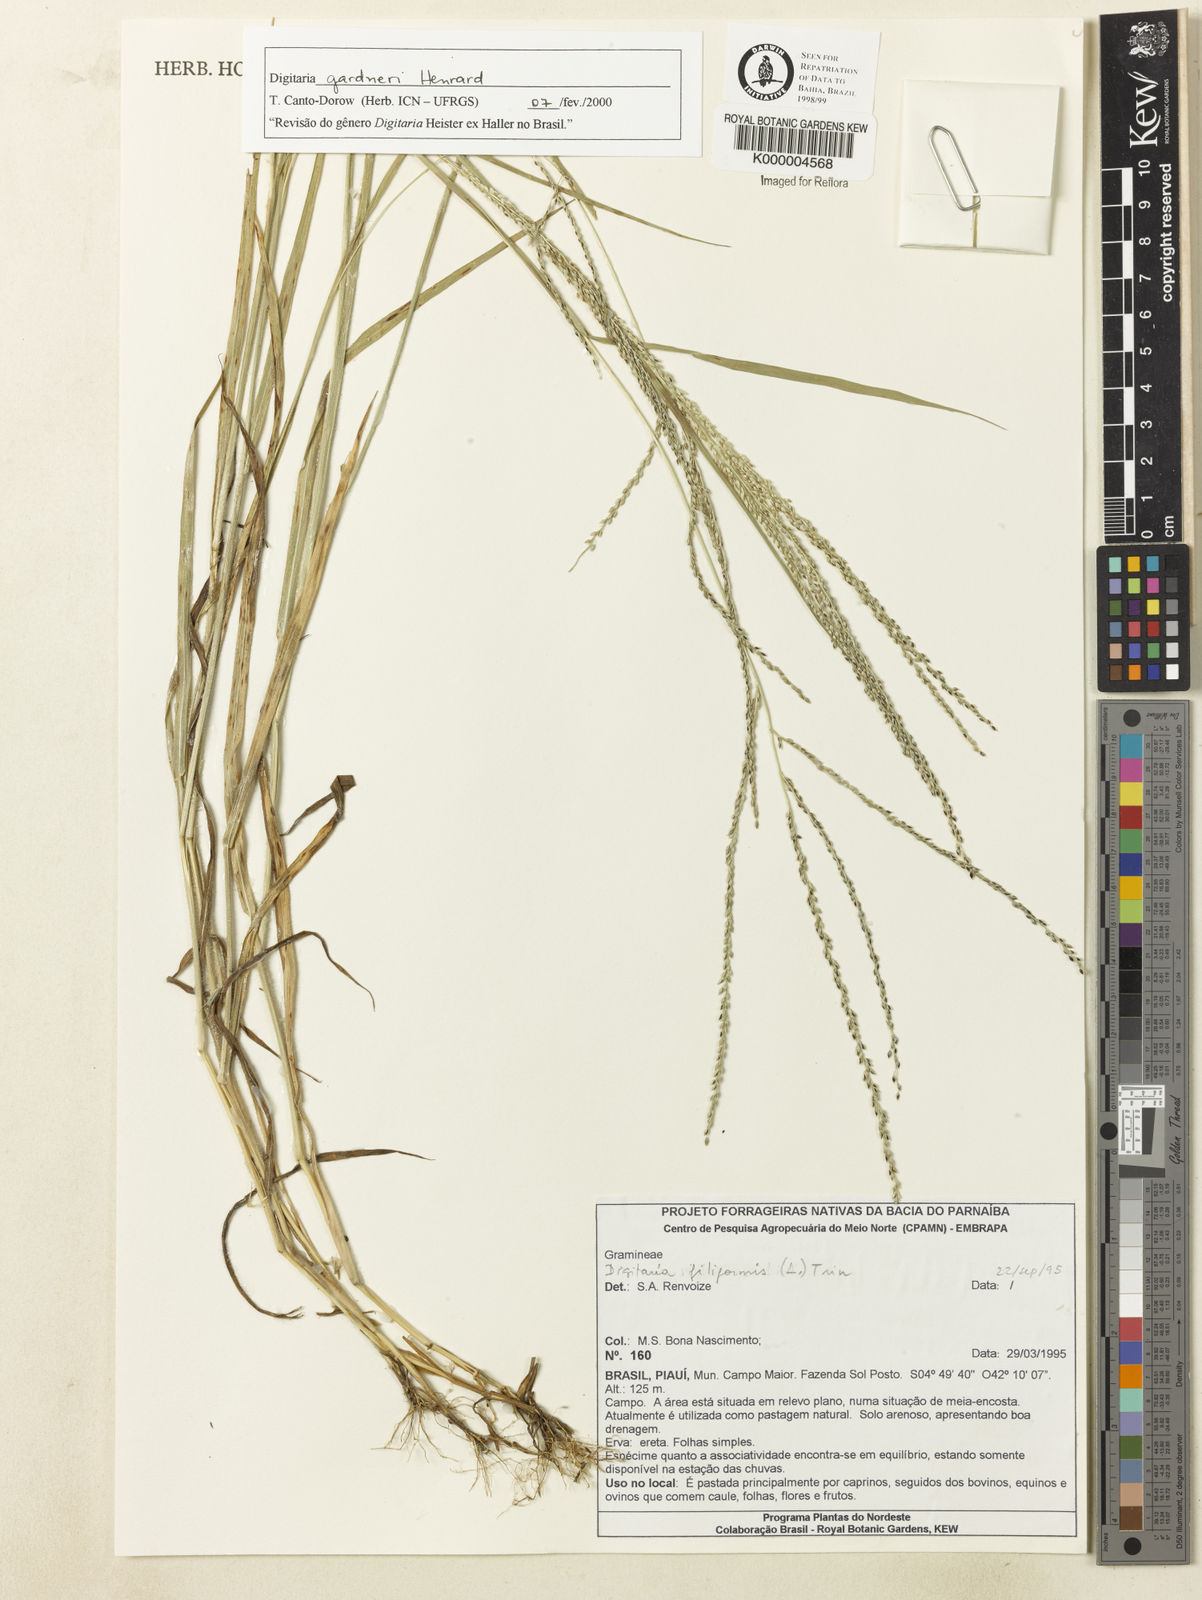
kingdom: Plantae
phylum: Tracheophyta
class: Liliopsida
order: Poales
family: Poaceae
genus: Digitaria
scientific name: Digitaria gardneri
